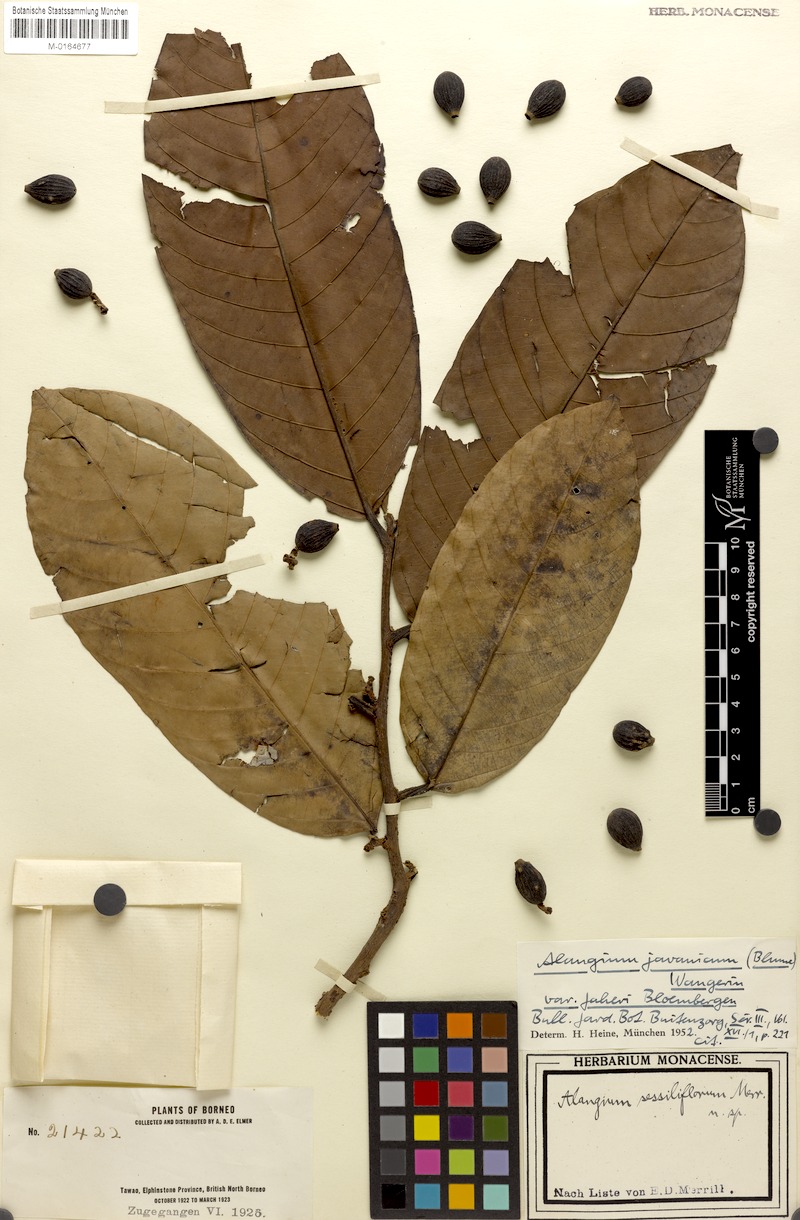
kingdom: Plantae
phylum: Tracheophyta
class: Magnoliopsida
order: Cornales
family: Cornaceae
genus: Alangium
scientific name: Alangium minahassicum
